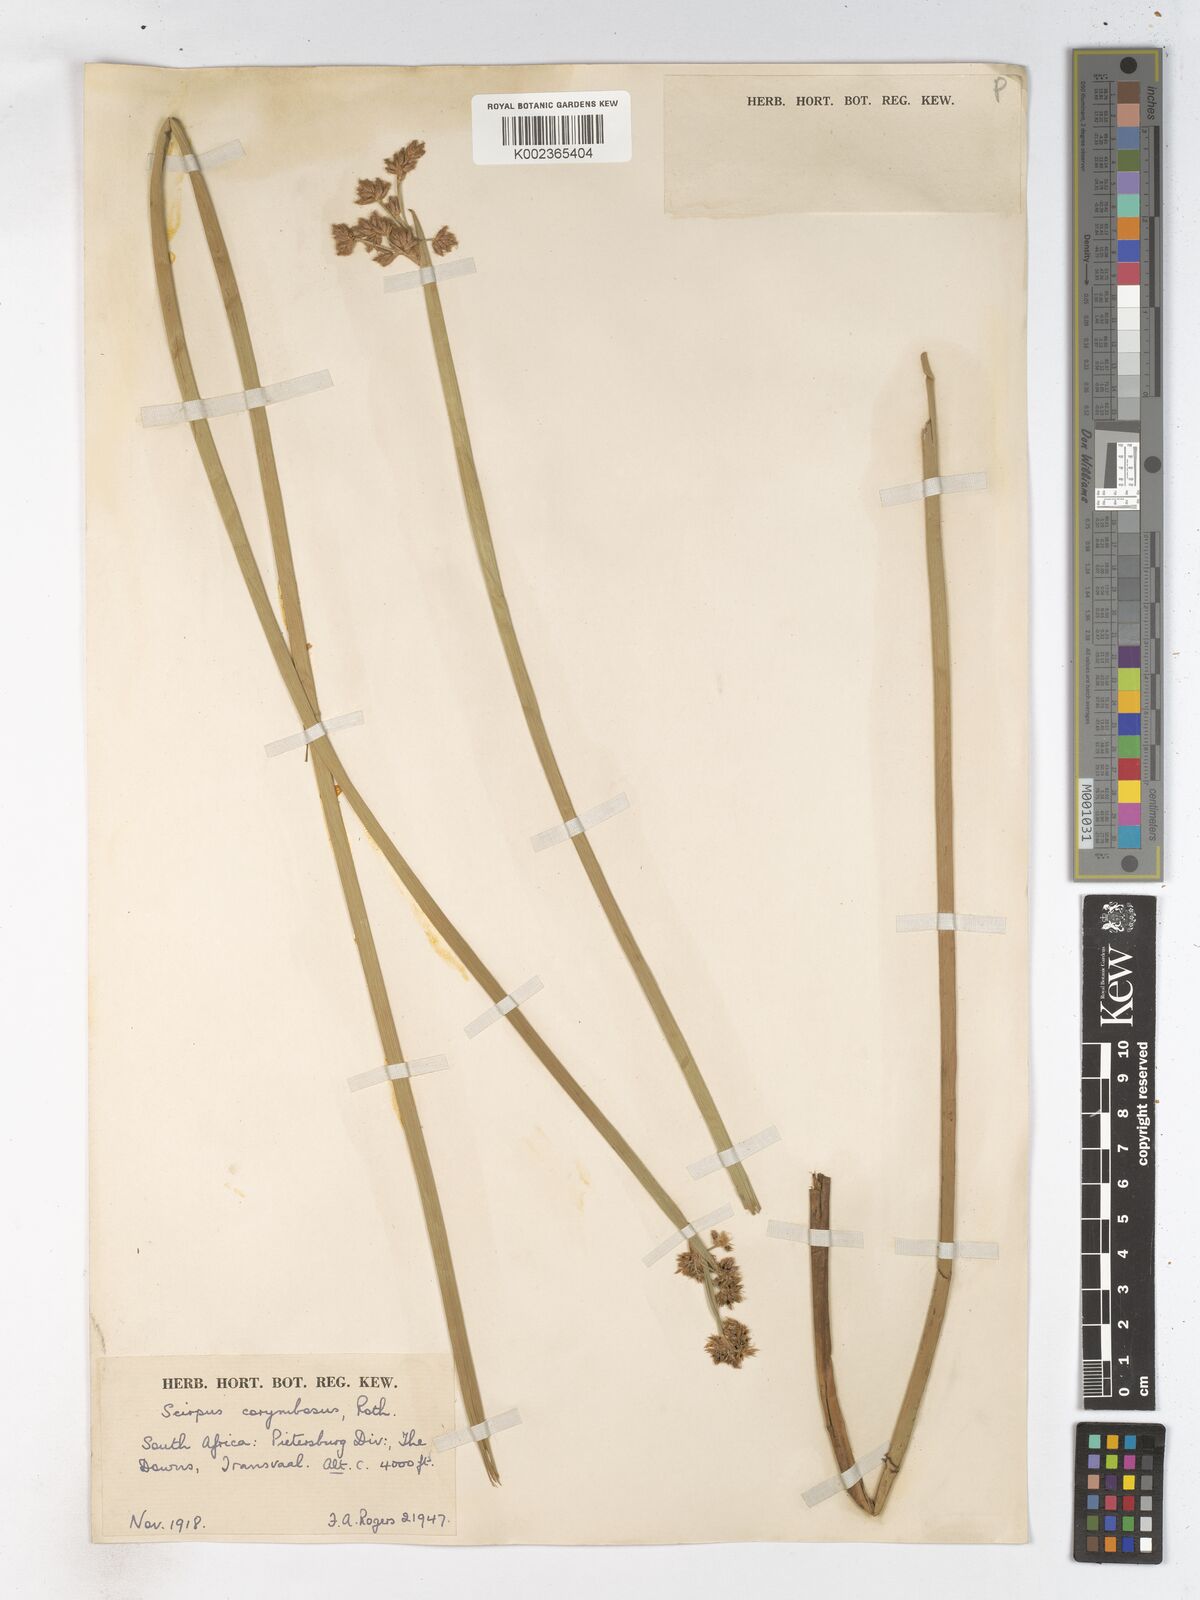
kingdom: Plantae
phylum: Tracheophyta
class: Liliopsida
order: Poales
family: Cyperaceae
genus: Schoenoplectiella
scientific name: Schoenoplectiella brachyceras
